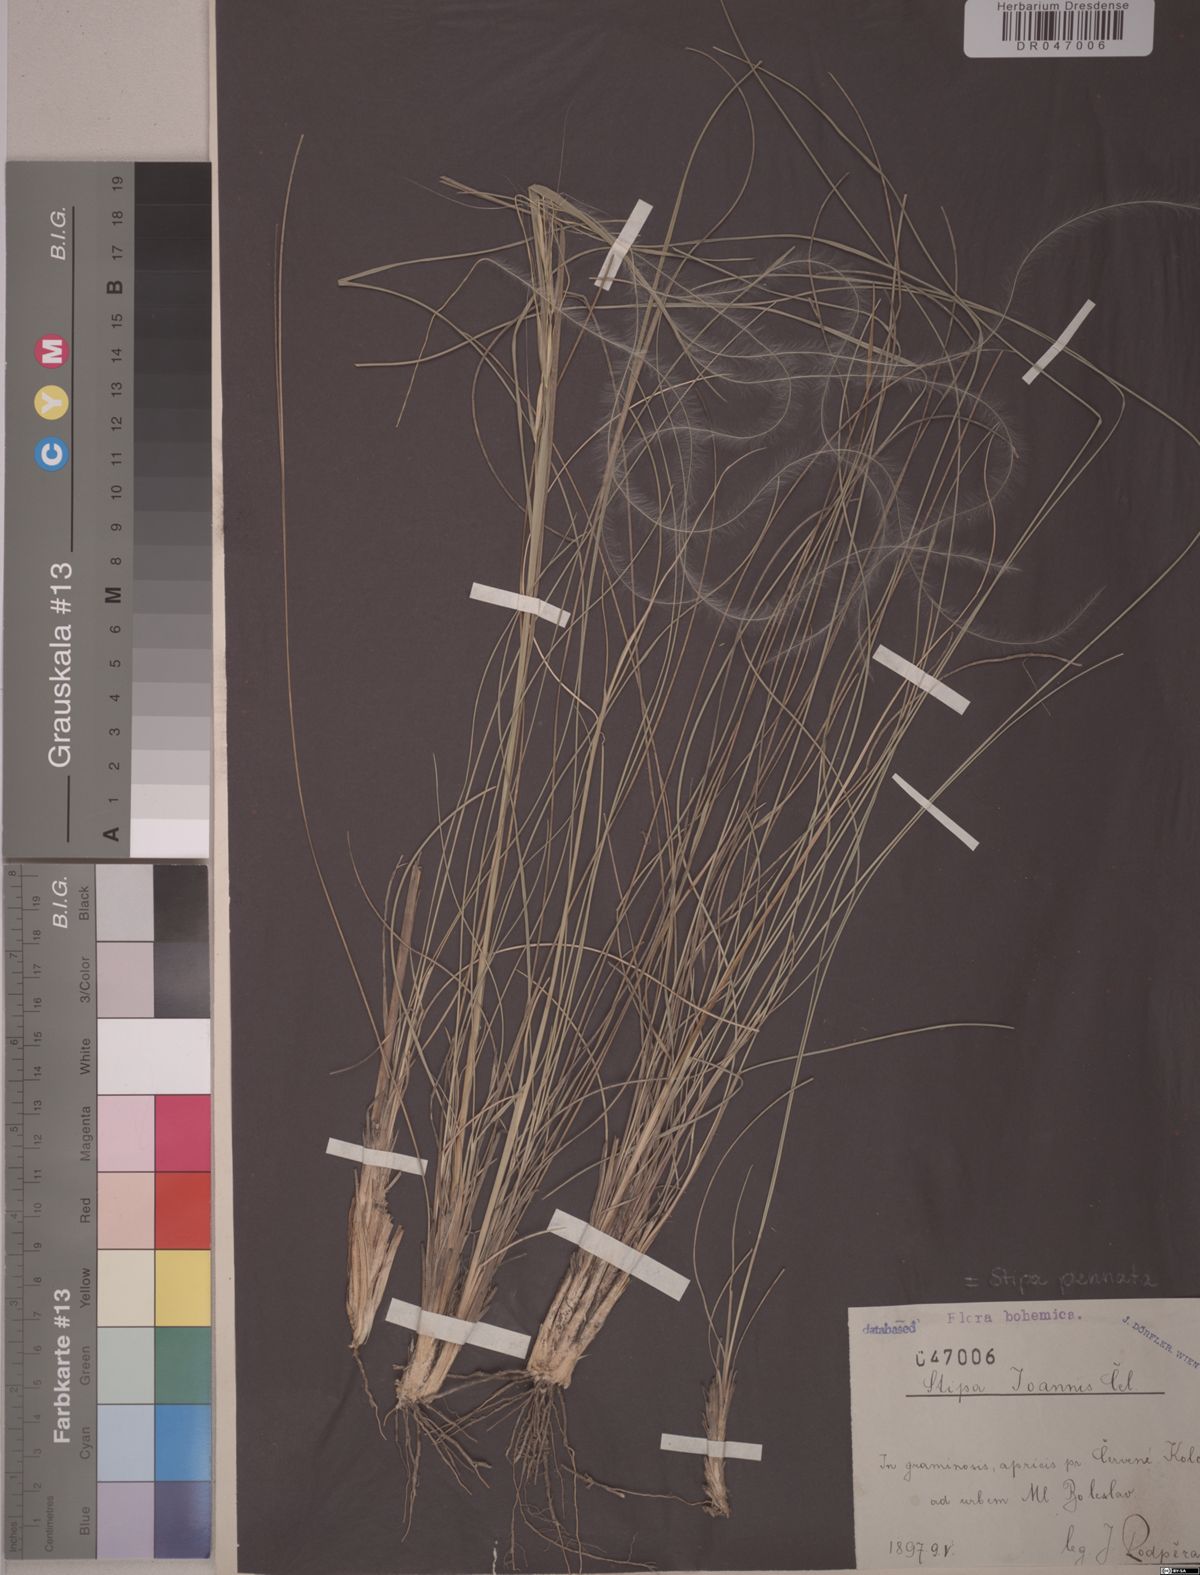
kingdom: Plantae
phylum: Tracheophyta
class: Liliopsida
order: Poales
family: Poaceae
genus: Stipa
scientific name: Stipa pennata
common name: European feather grass
